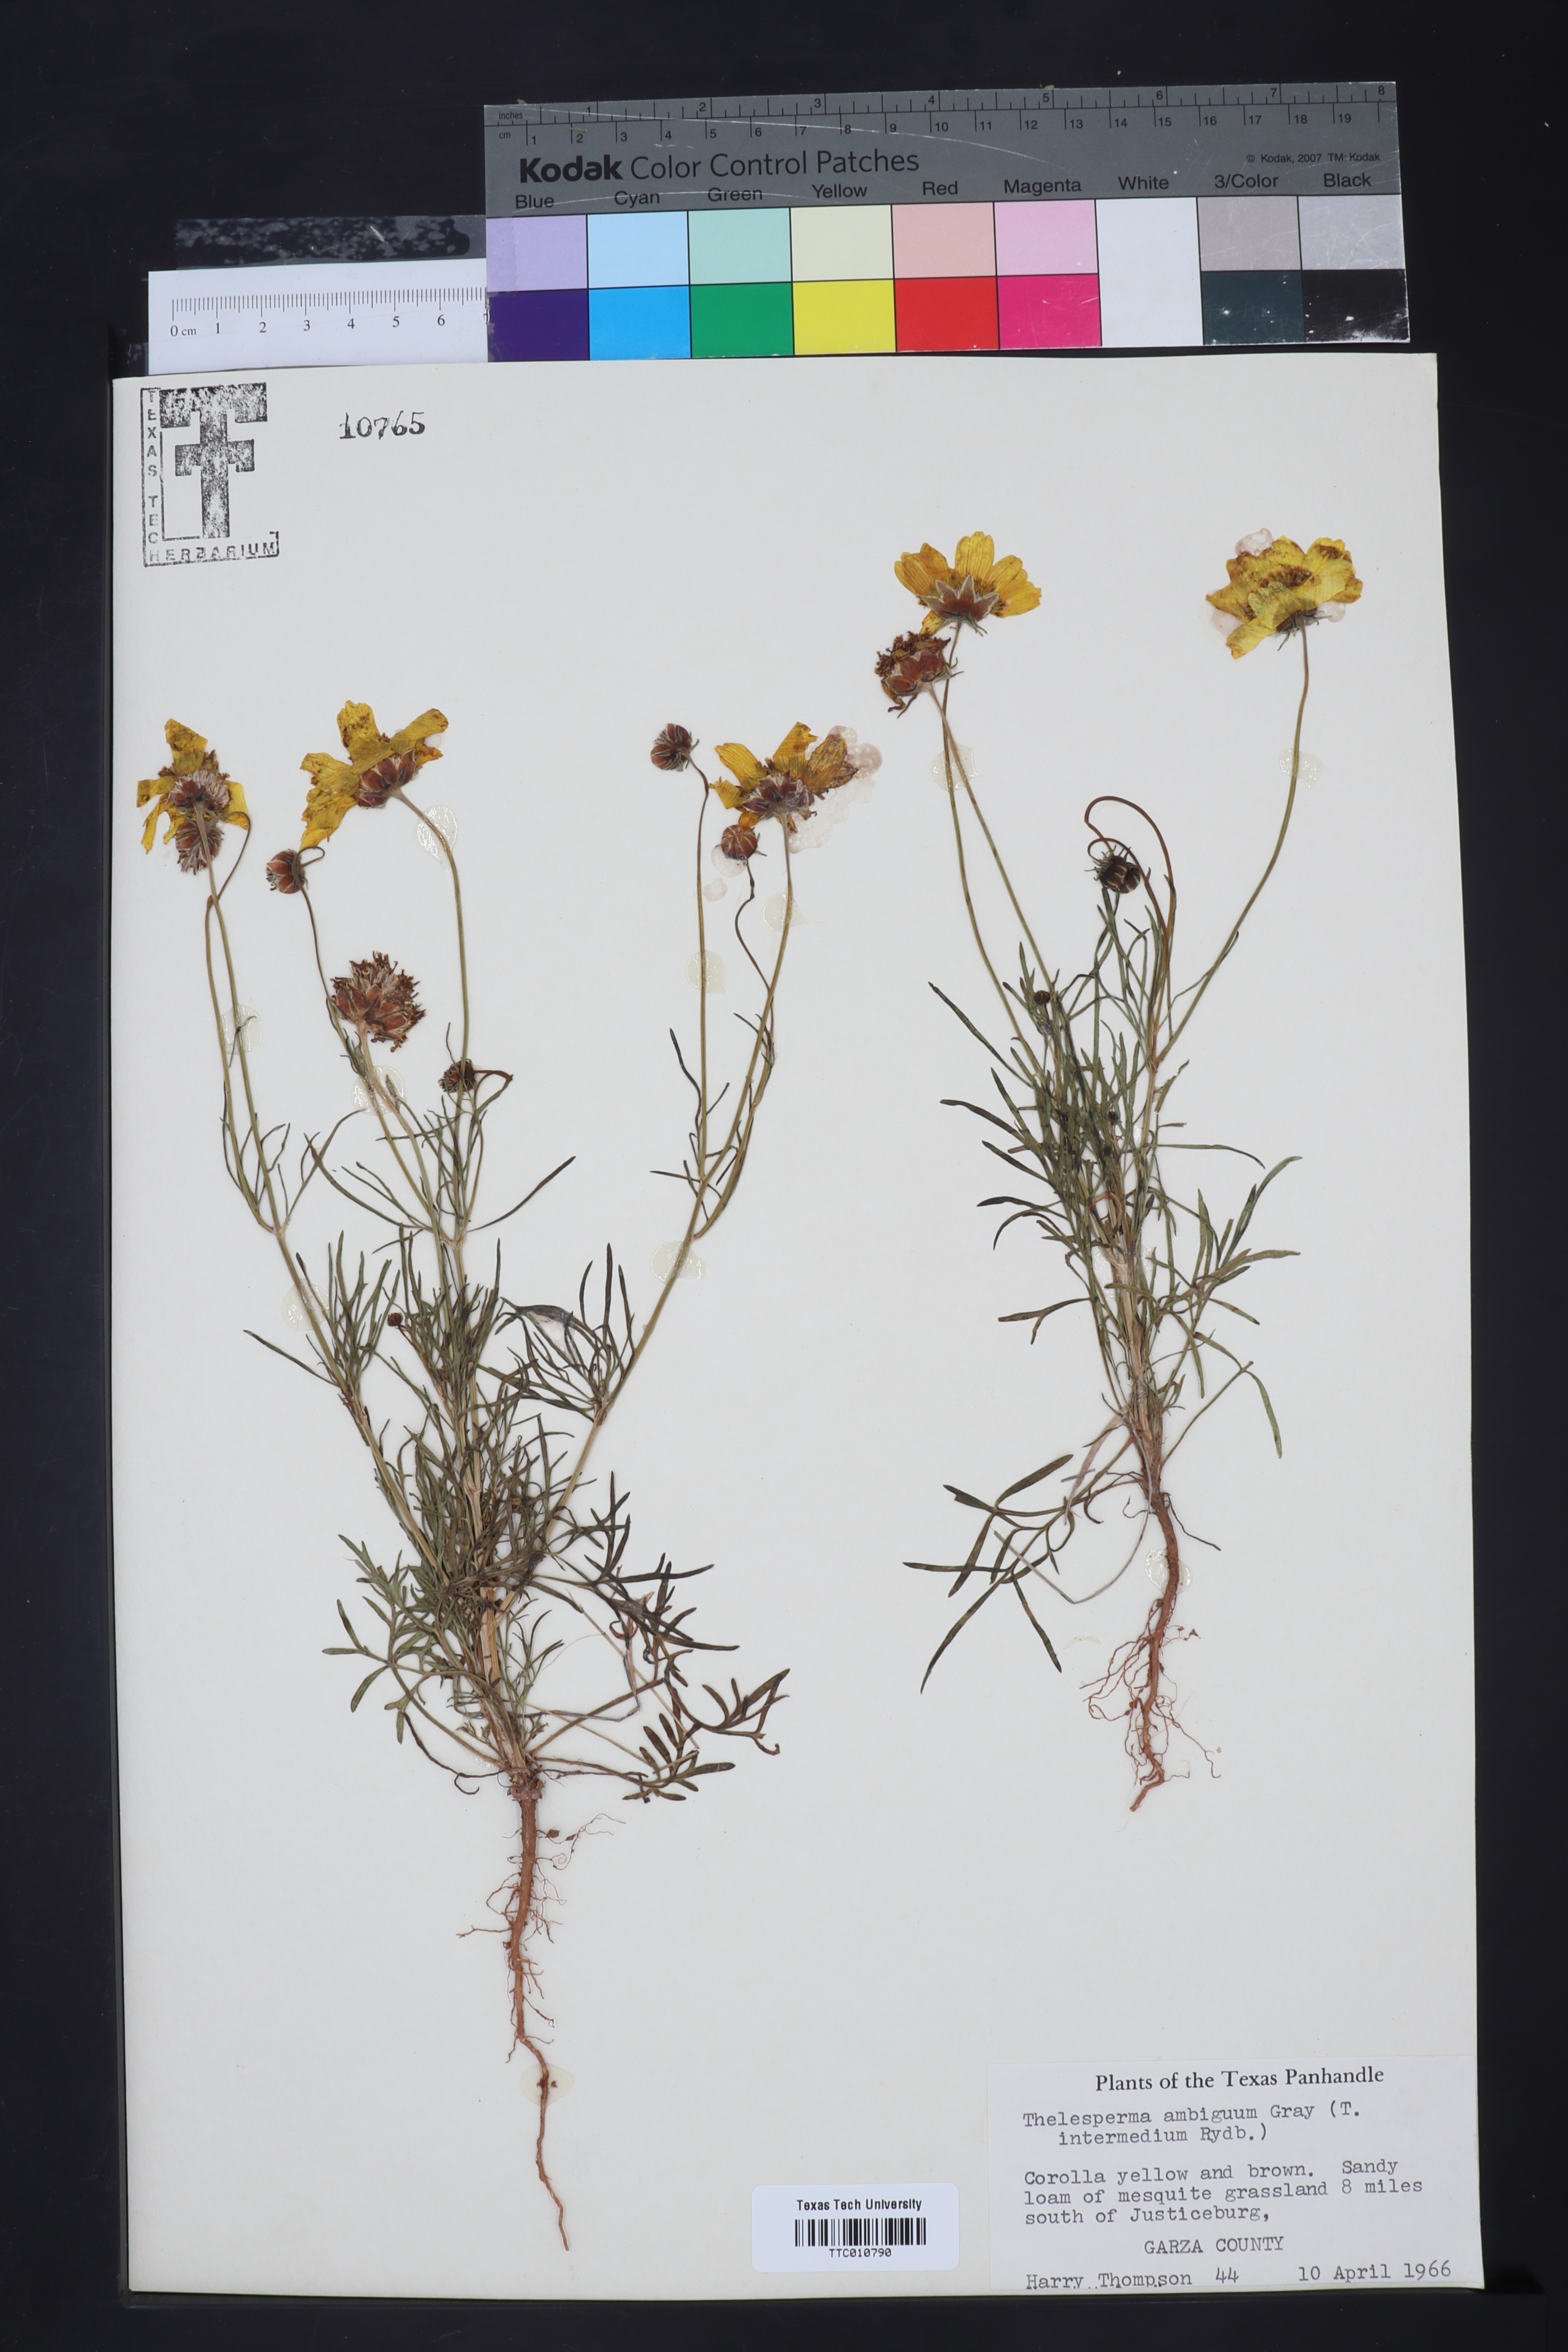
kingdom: Plantae
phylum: Tracheophyta
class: Magnoliopsida
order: Asterales
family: Asteraceae
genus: Thelesperma
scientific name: Thelesperma ambiguum
